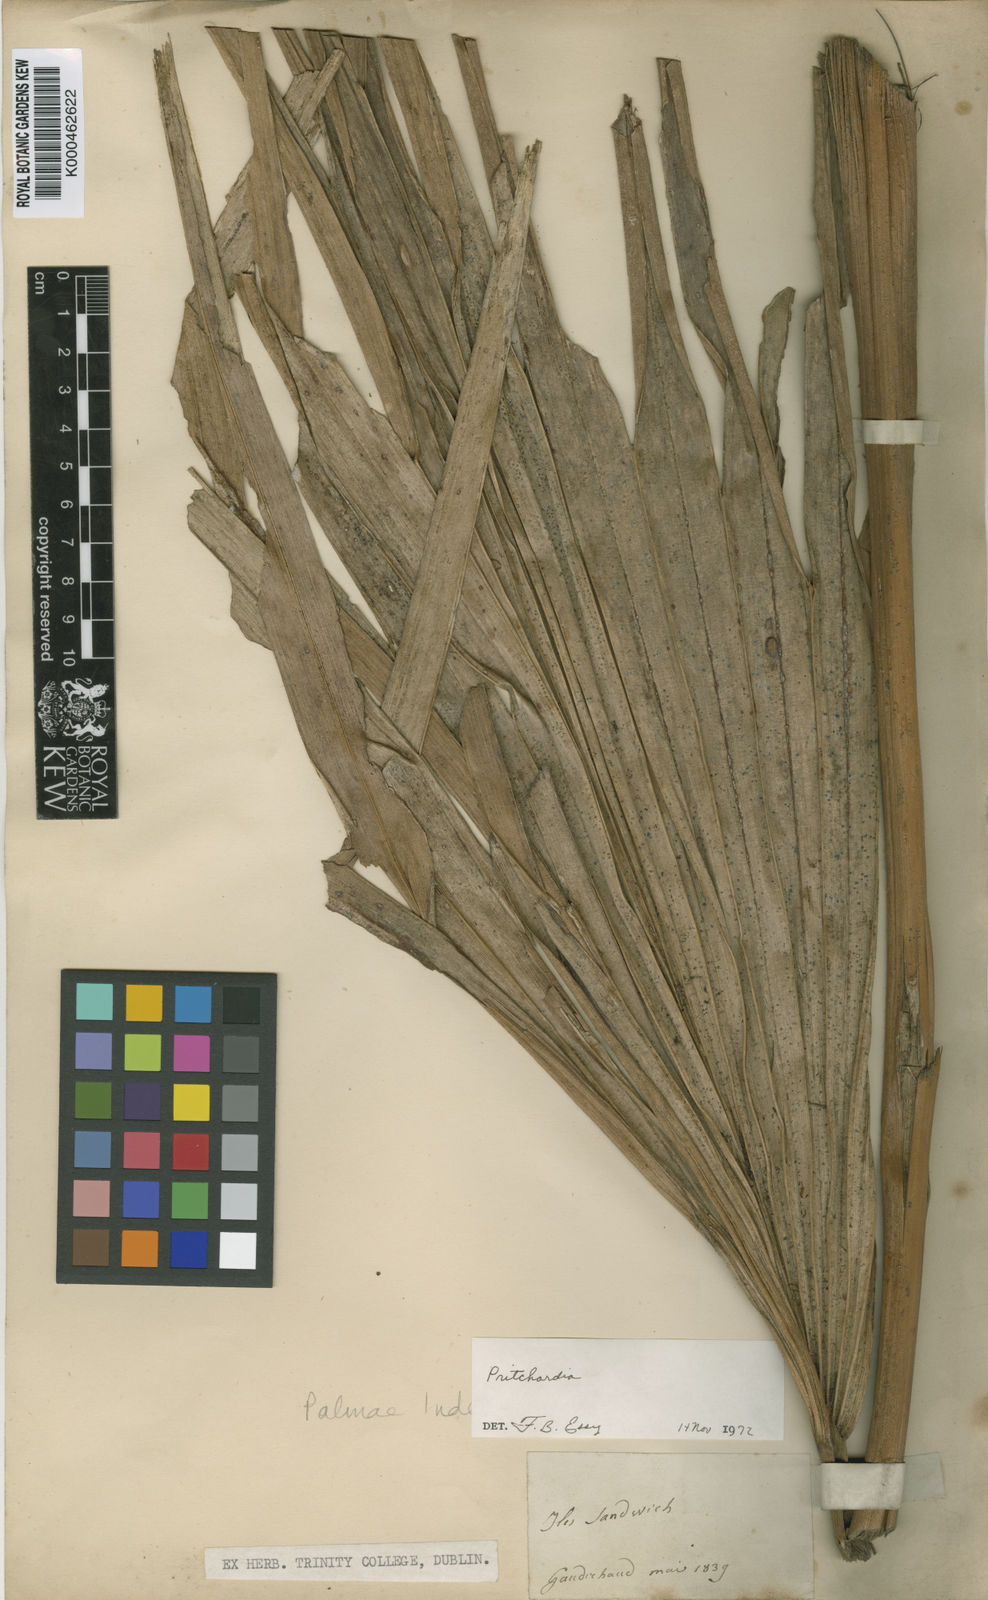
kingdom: Plantae
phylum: Tracheophyta
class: Liliopsida
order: Arecales
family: Arecaceae
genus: Pritchardia
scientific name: Pritchardia
